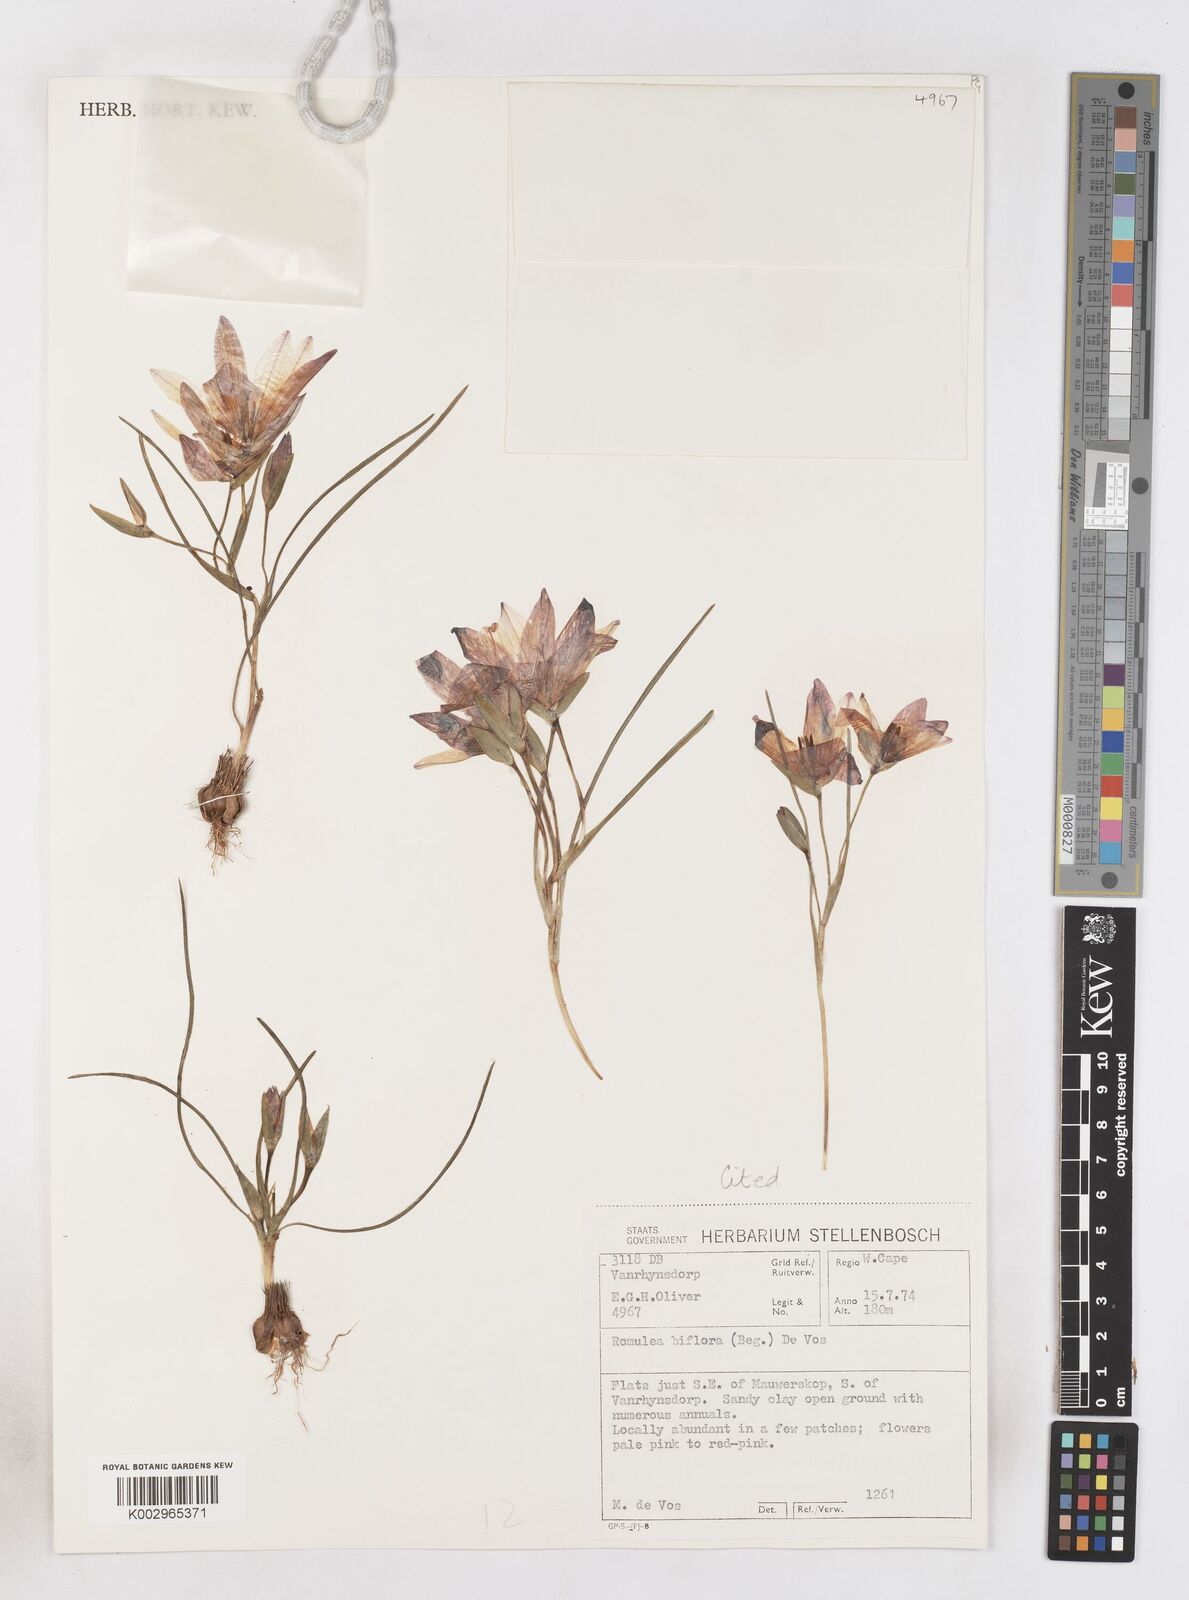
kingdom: Plantae
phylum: Tracheophyta
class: Liliopsida
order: Asparagales
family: Iridaceae
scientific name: Iridaceae
